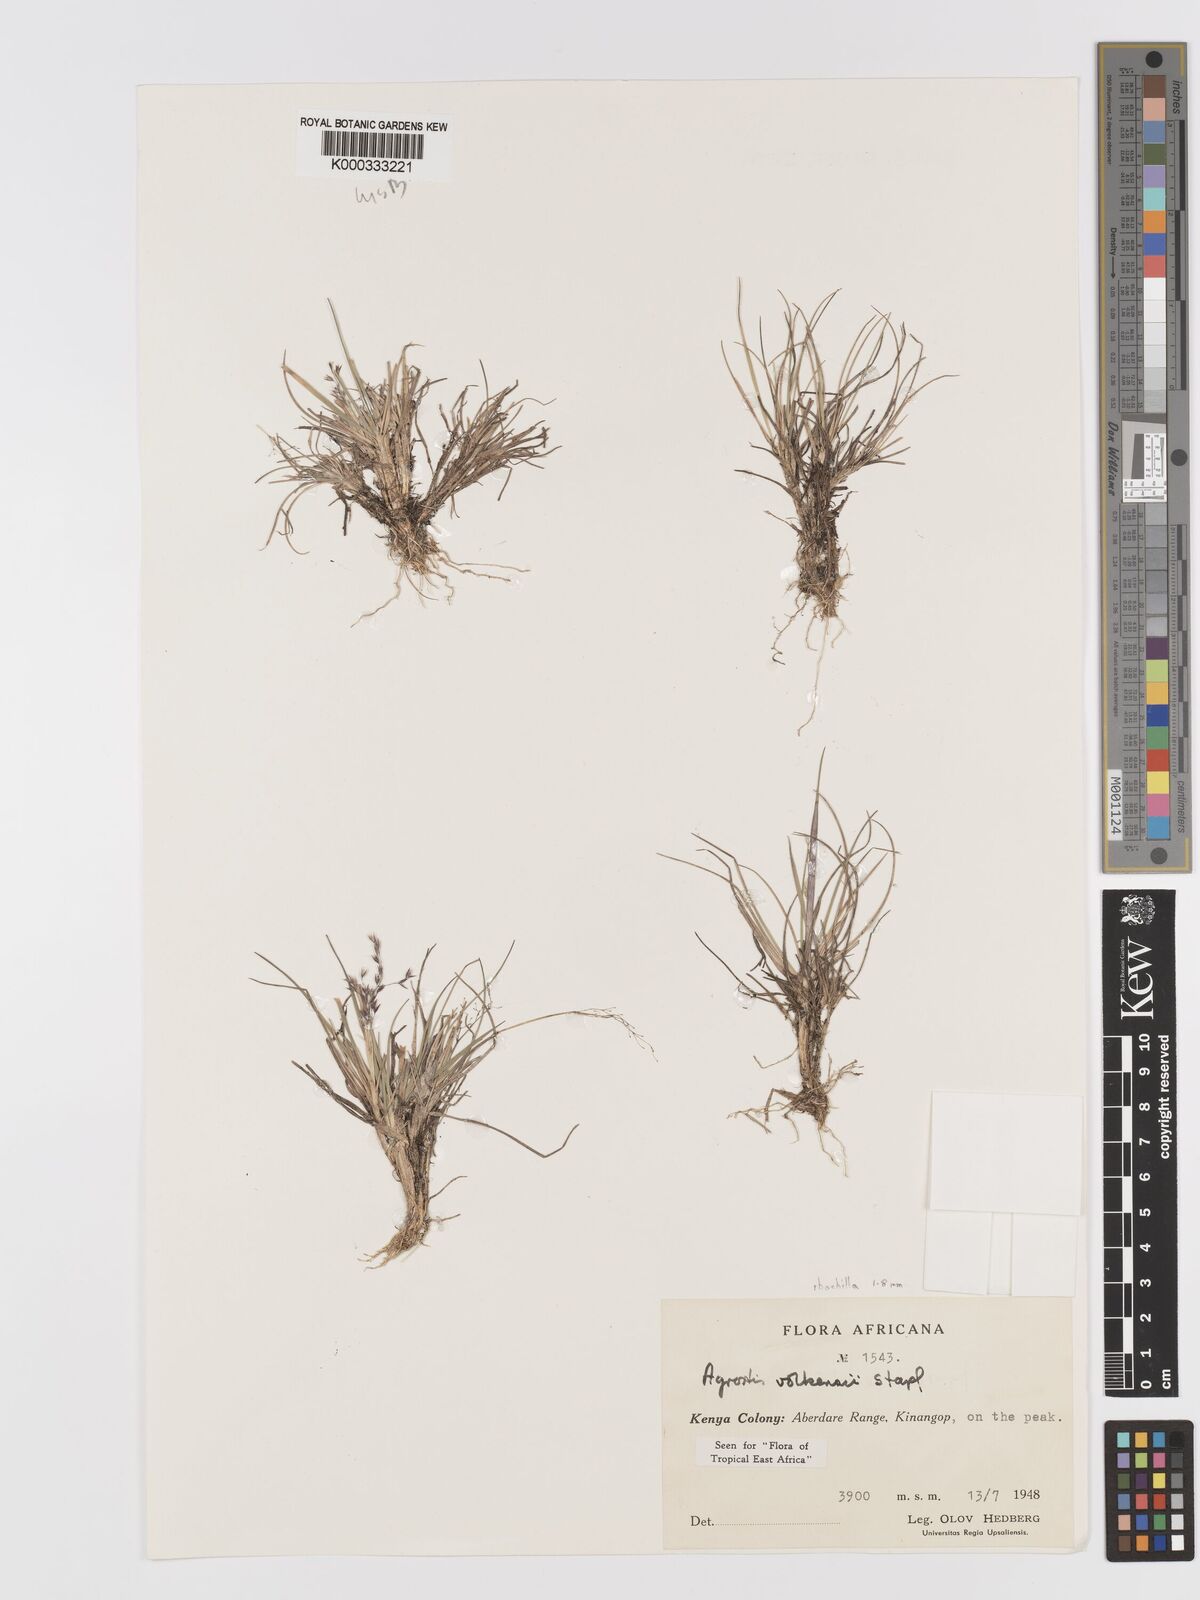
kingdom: Plantae
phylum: Tracheophyta
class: Liliopsida
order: Poales
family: Poaceae
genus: Agrostis
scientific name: Agrostis volkensii
